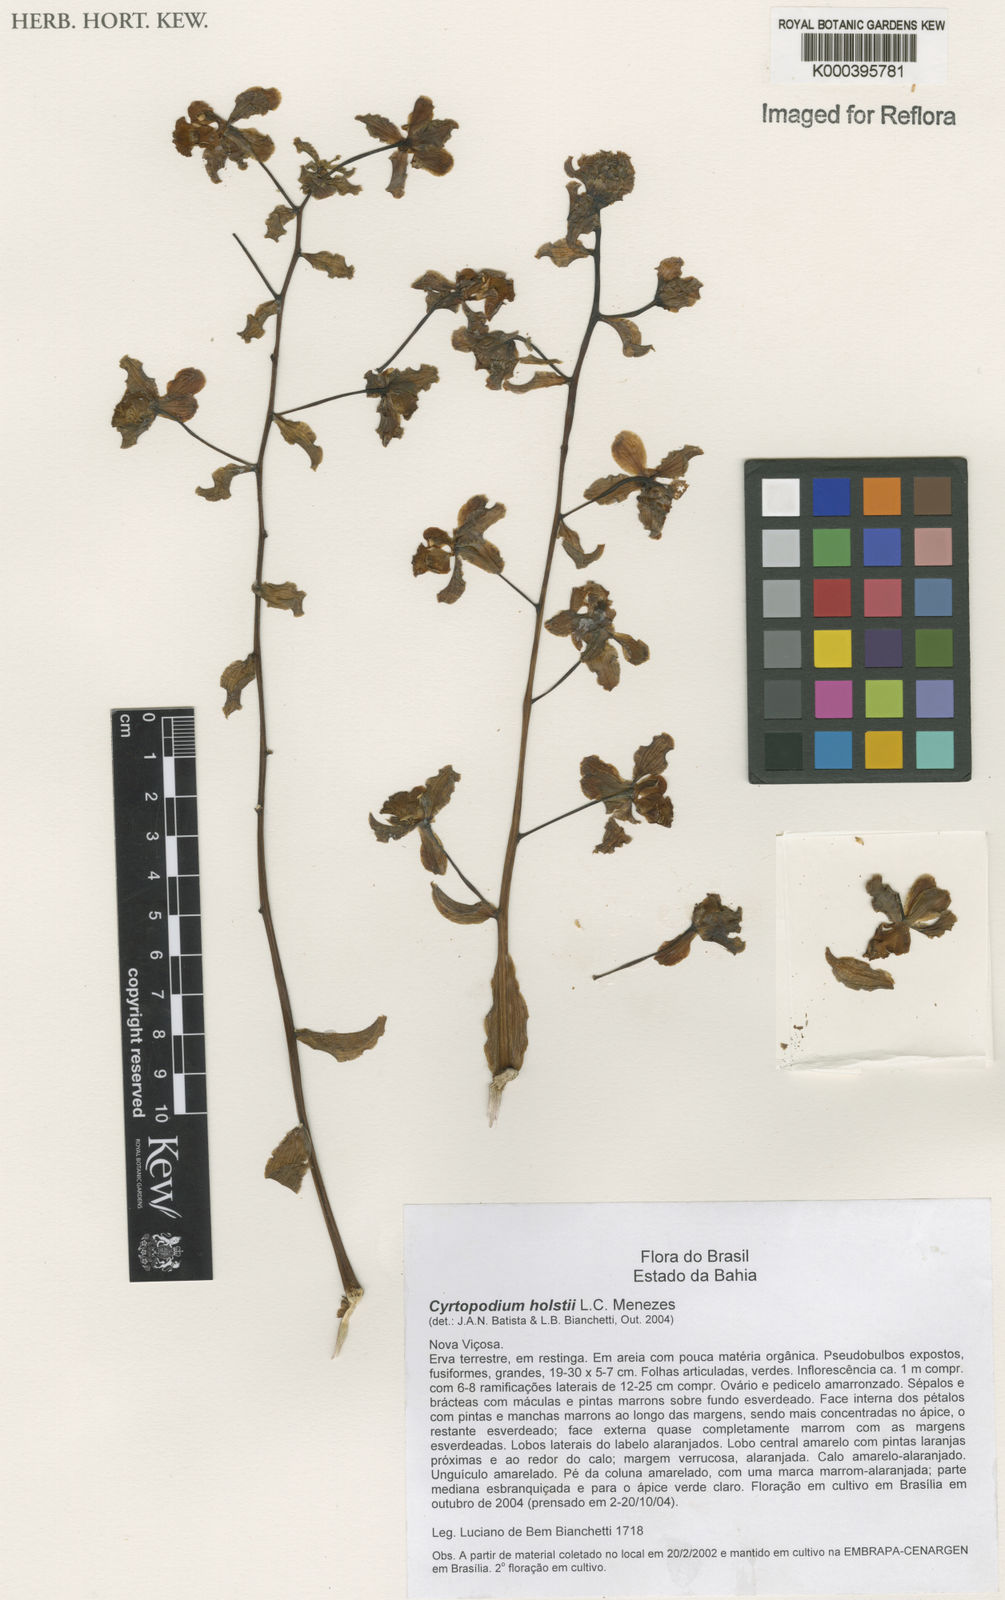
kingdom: Plantae
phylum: Tracheophyta
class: Liliopsida
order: Asparagales
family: Orchidaceae
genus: Cyrtopodium
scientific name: Cyrtopodium holstii
